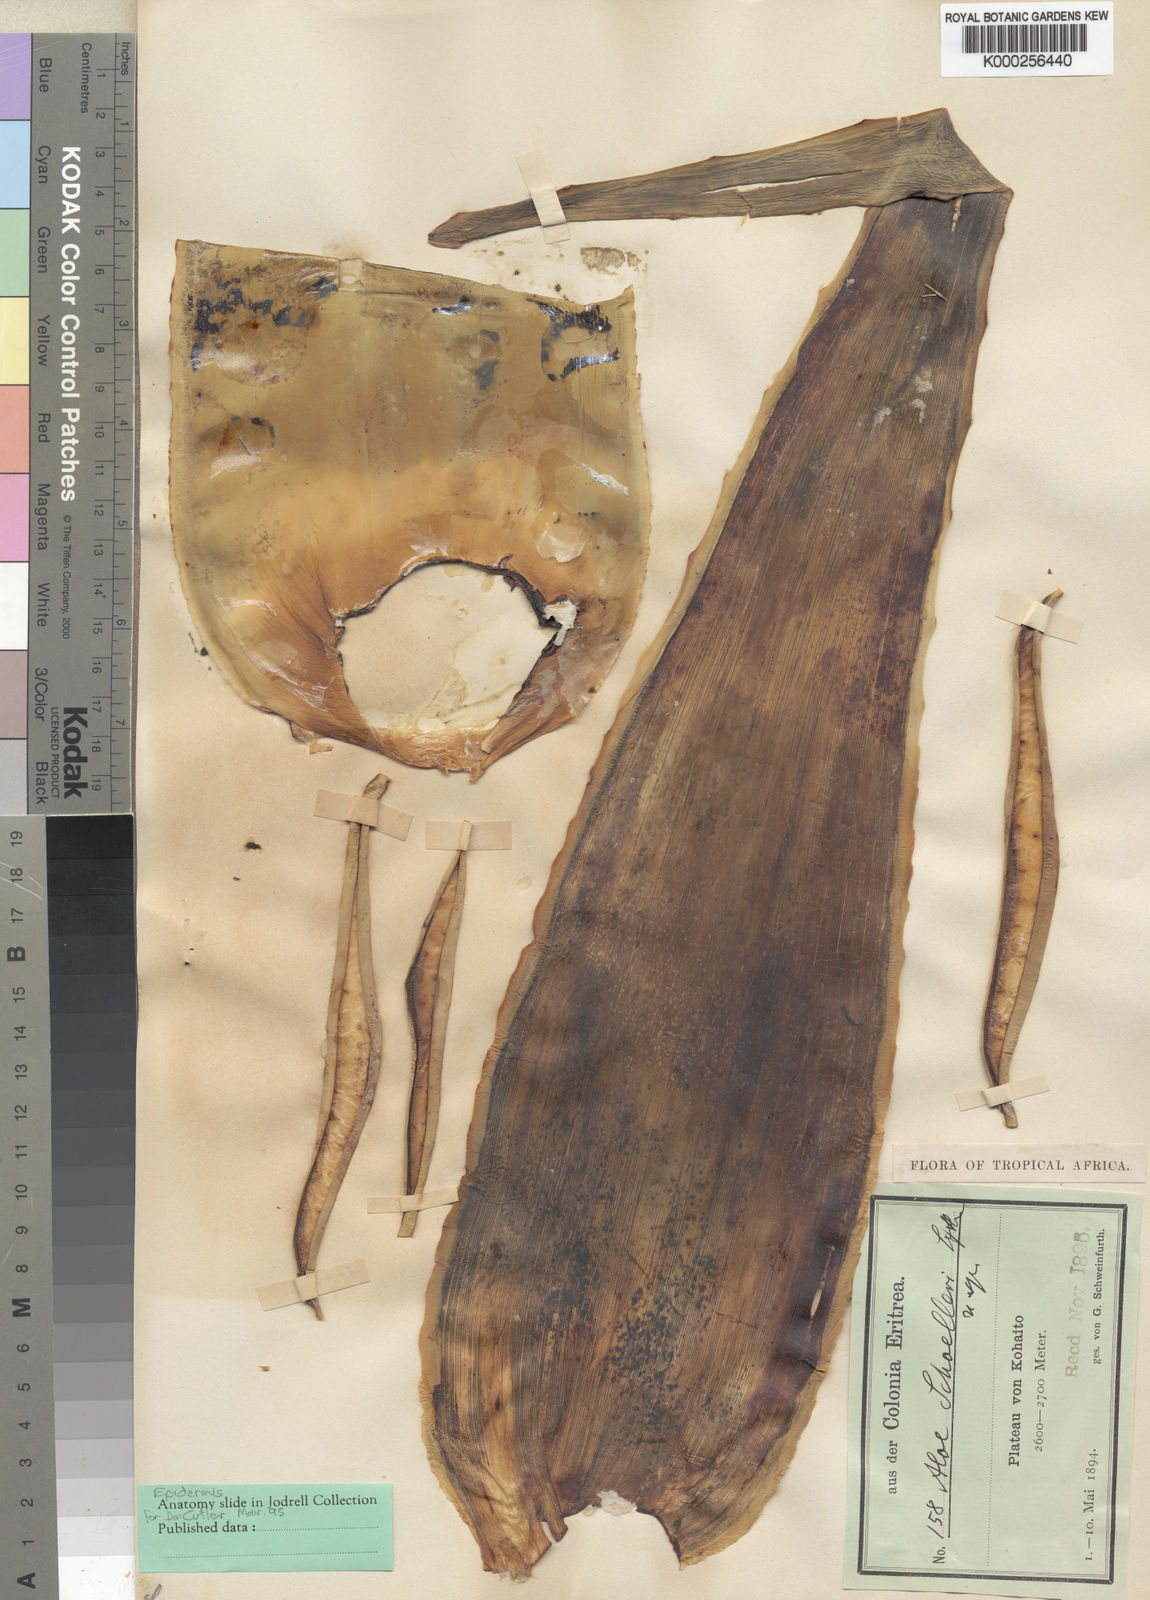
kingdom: Plantae
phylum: Tracheophyta
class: Liliopsida
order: Asparagales
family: Asphodelaceae
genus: Aloe
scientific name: Aloe schoelleri
